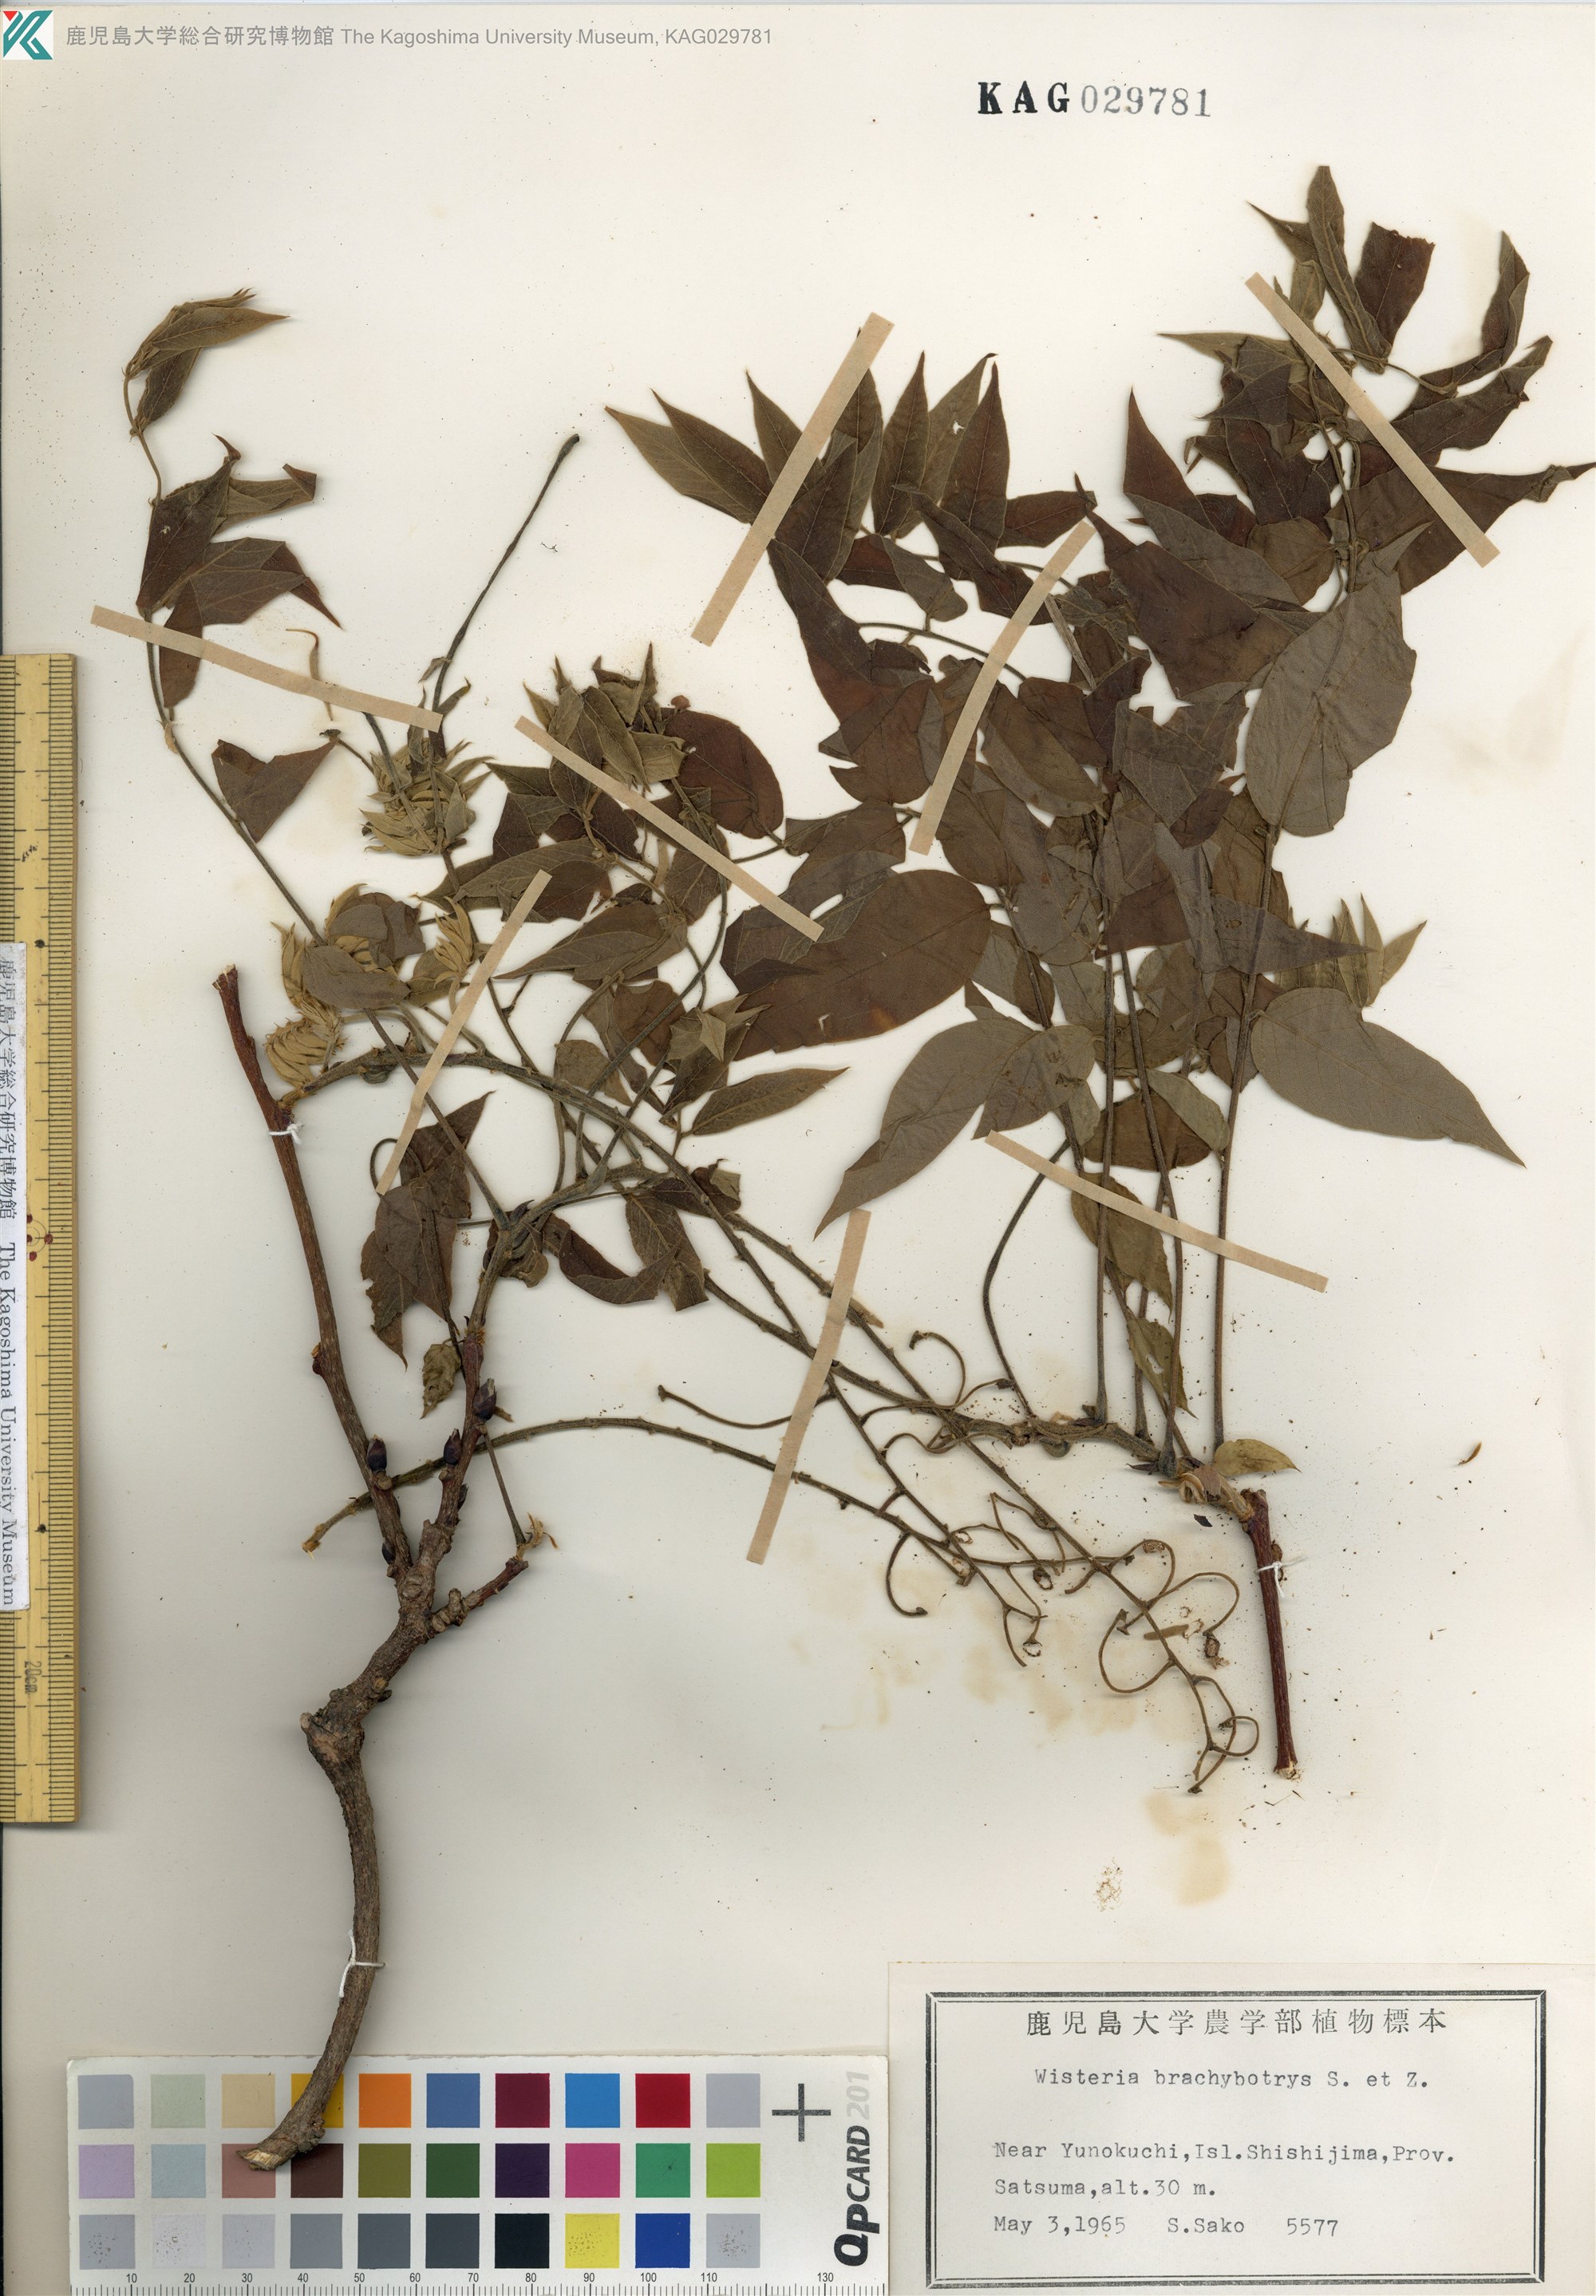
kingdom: Plantae
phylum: Tracheophyta
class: Magnoliopsida
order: Fabales
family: Fabaceae
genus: Wisteria
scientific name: Wisteria brachybotrys
